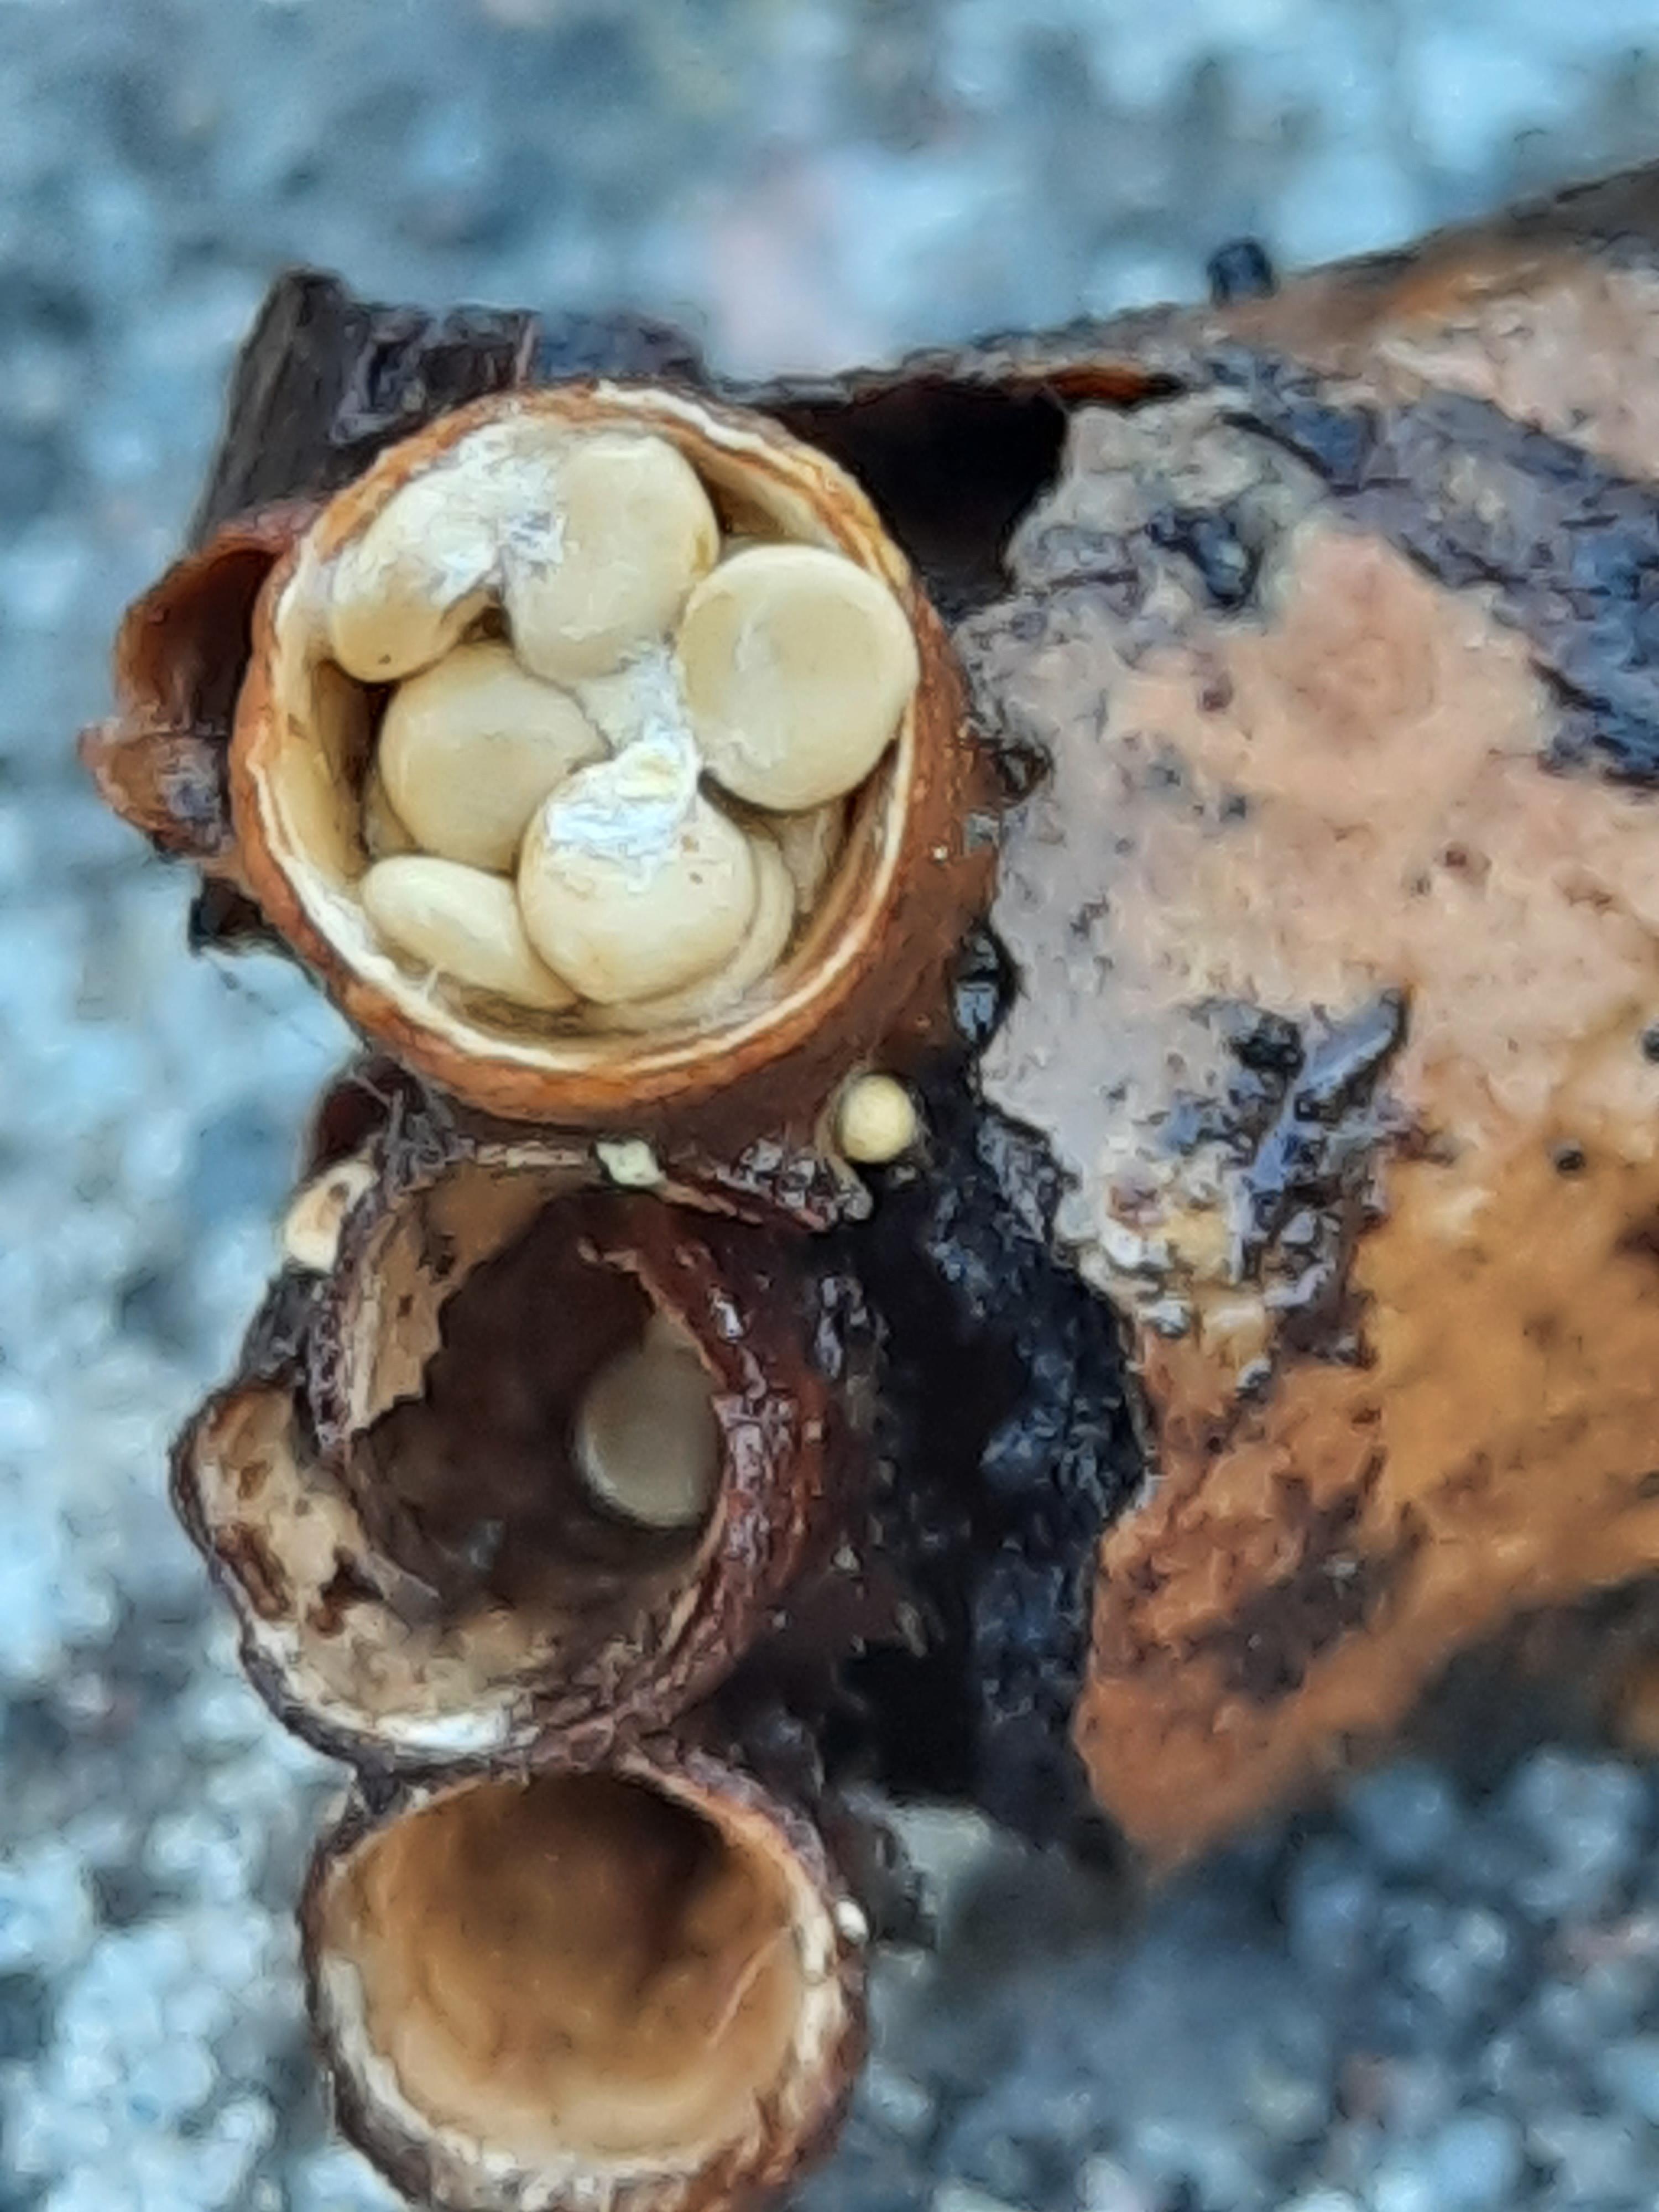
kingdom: Fungi
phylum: Basidiomycota
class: Agaricomycetes
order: Agaricales
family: Nidulariaceae
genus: Crucibulum
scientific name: Crucibulum crucibuliforme
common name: krukkesvamp
